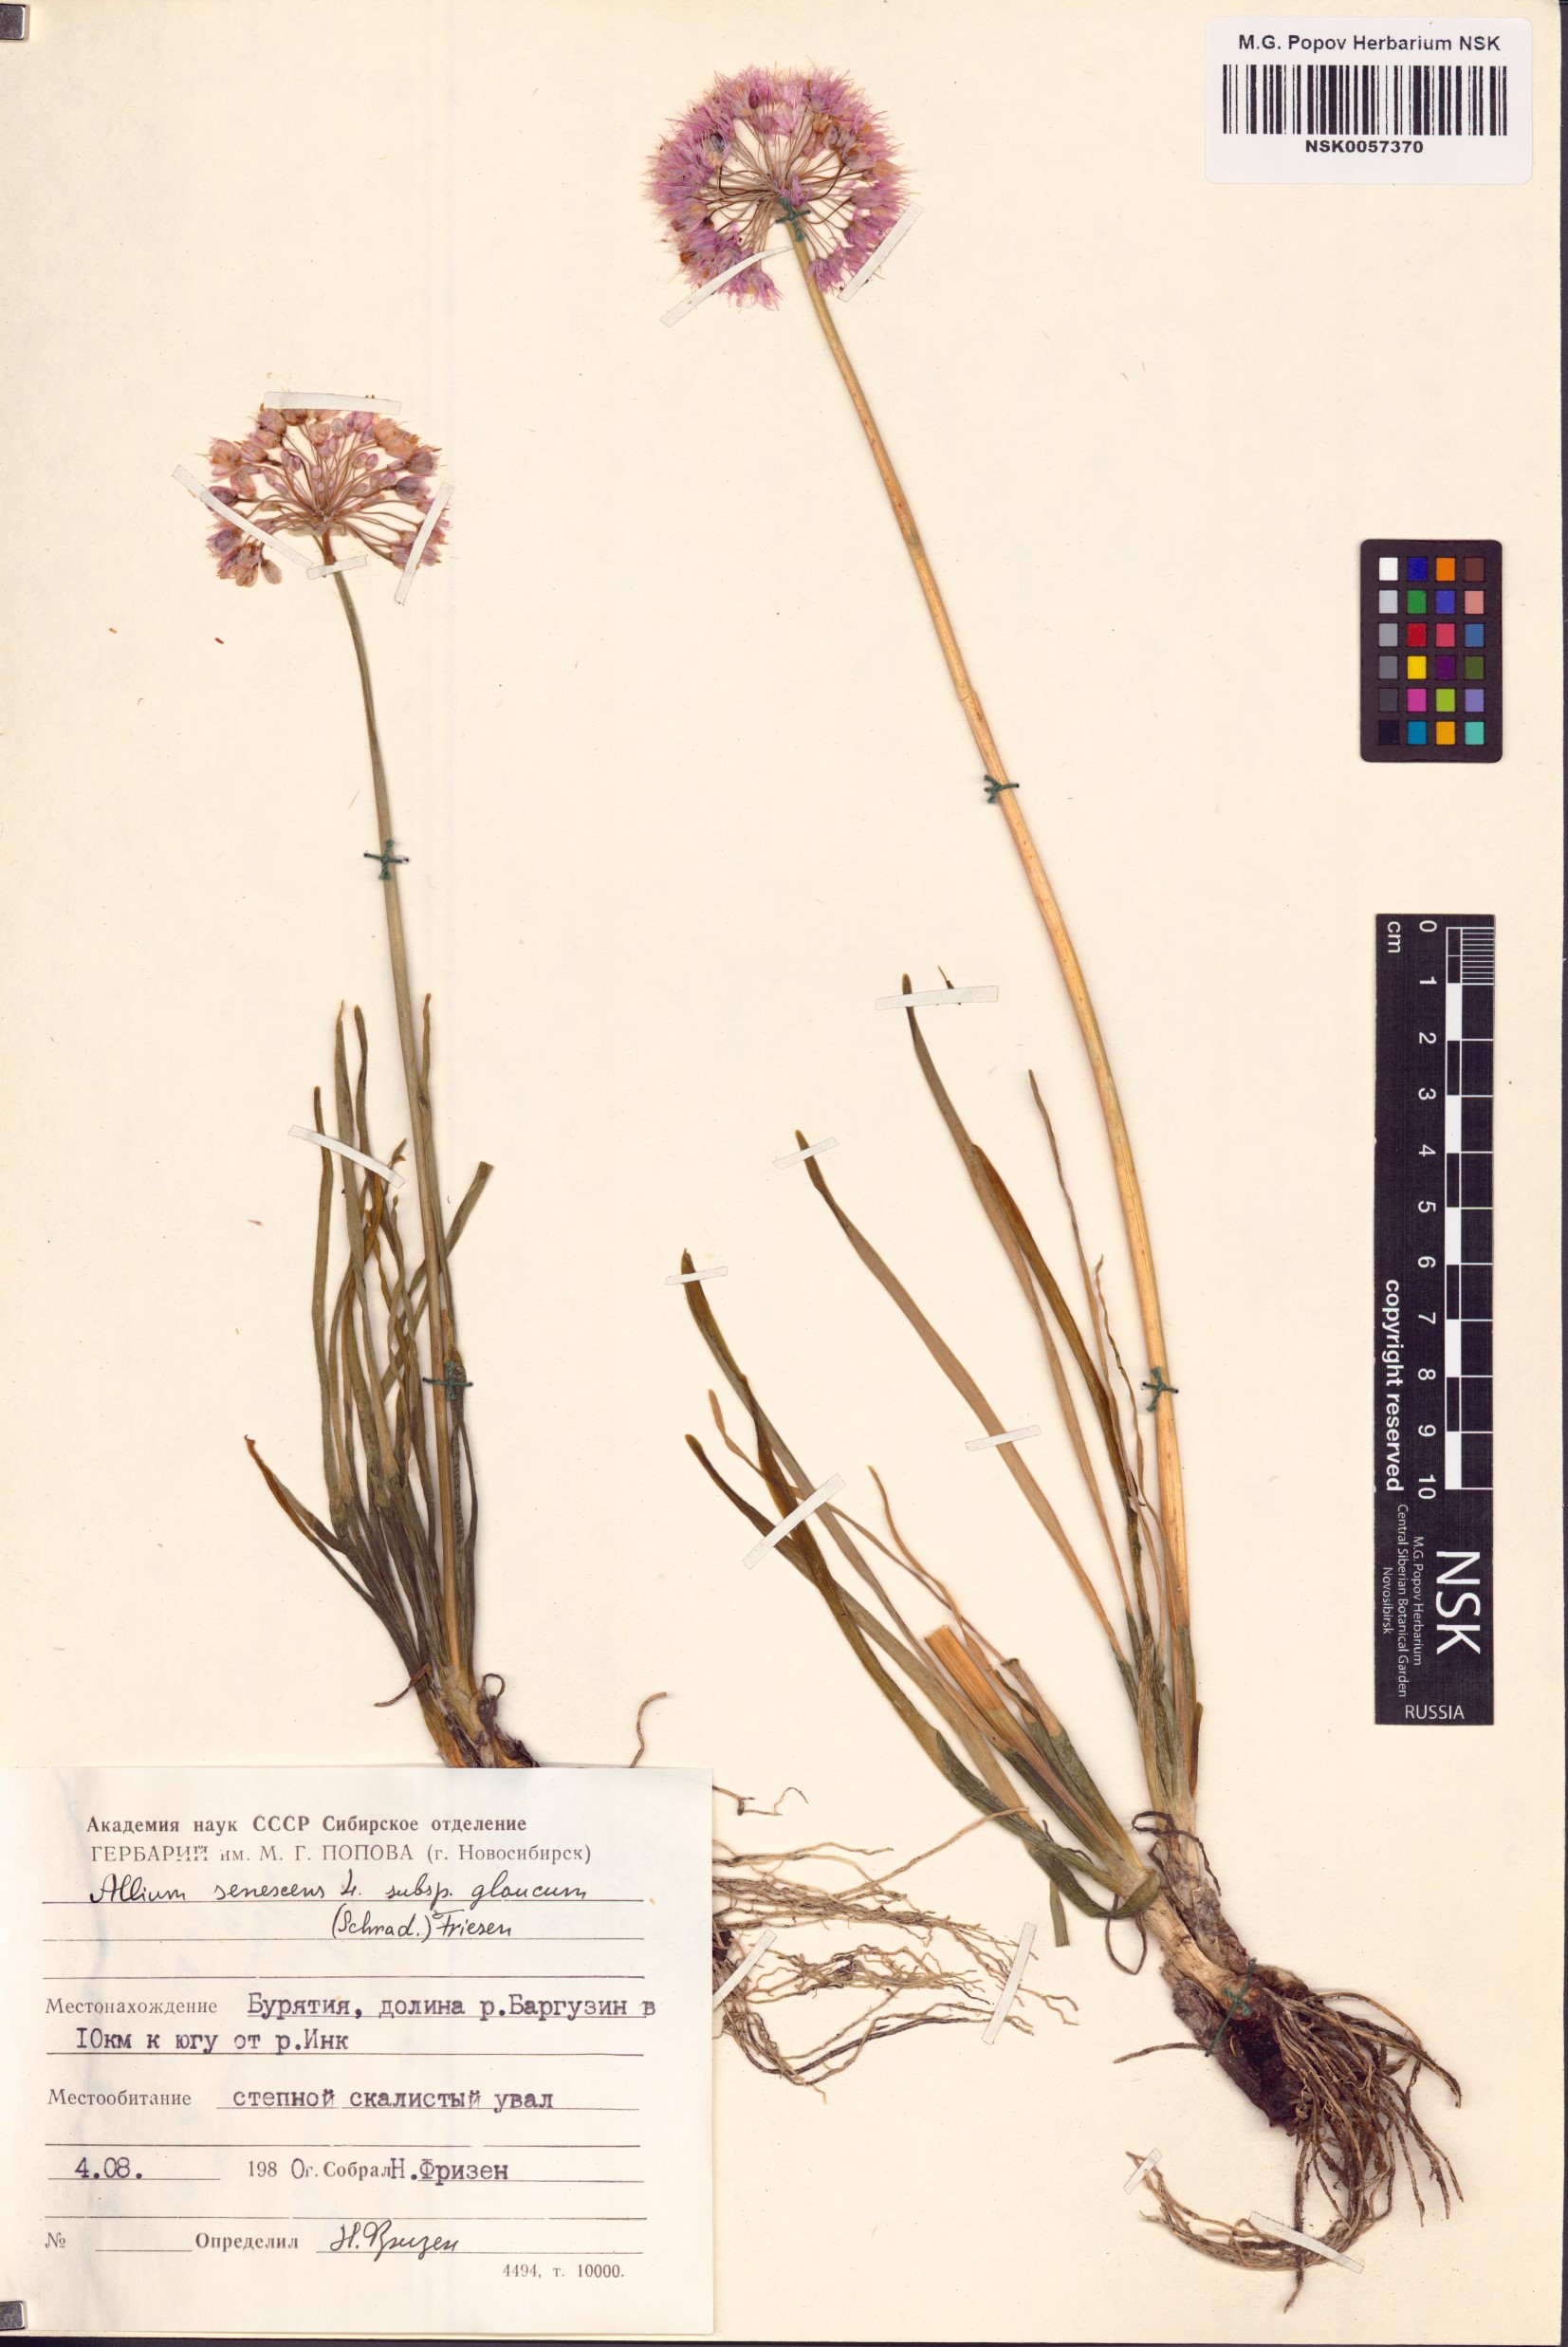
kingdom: Plantae
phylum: Tracheophyta
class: Liliopsida
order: Asparagales
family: Amaryllidaceae
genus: Allium
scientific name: Allium senescens
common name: German garlic
